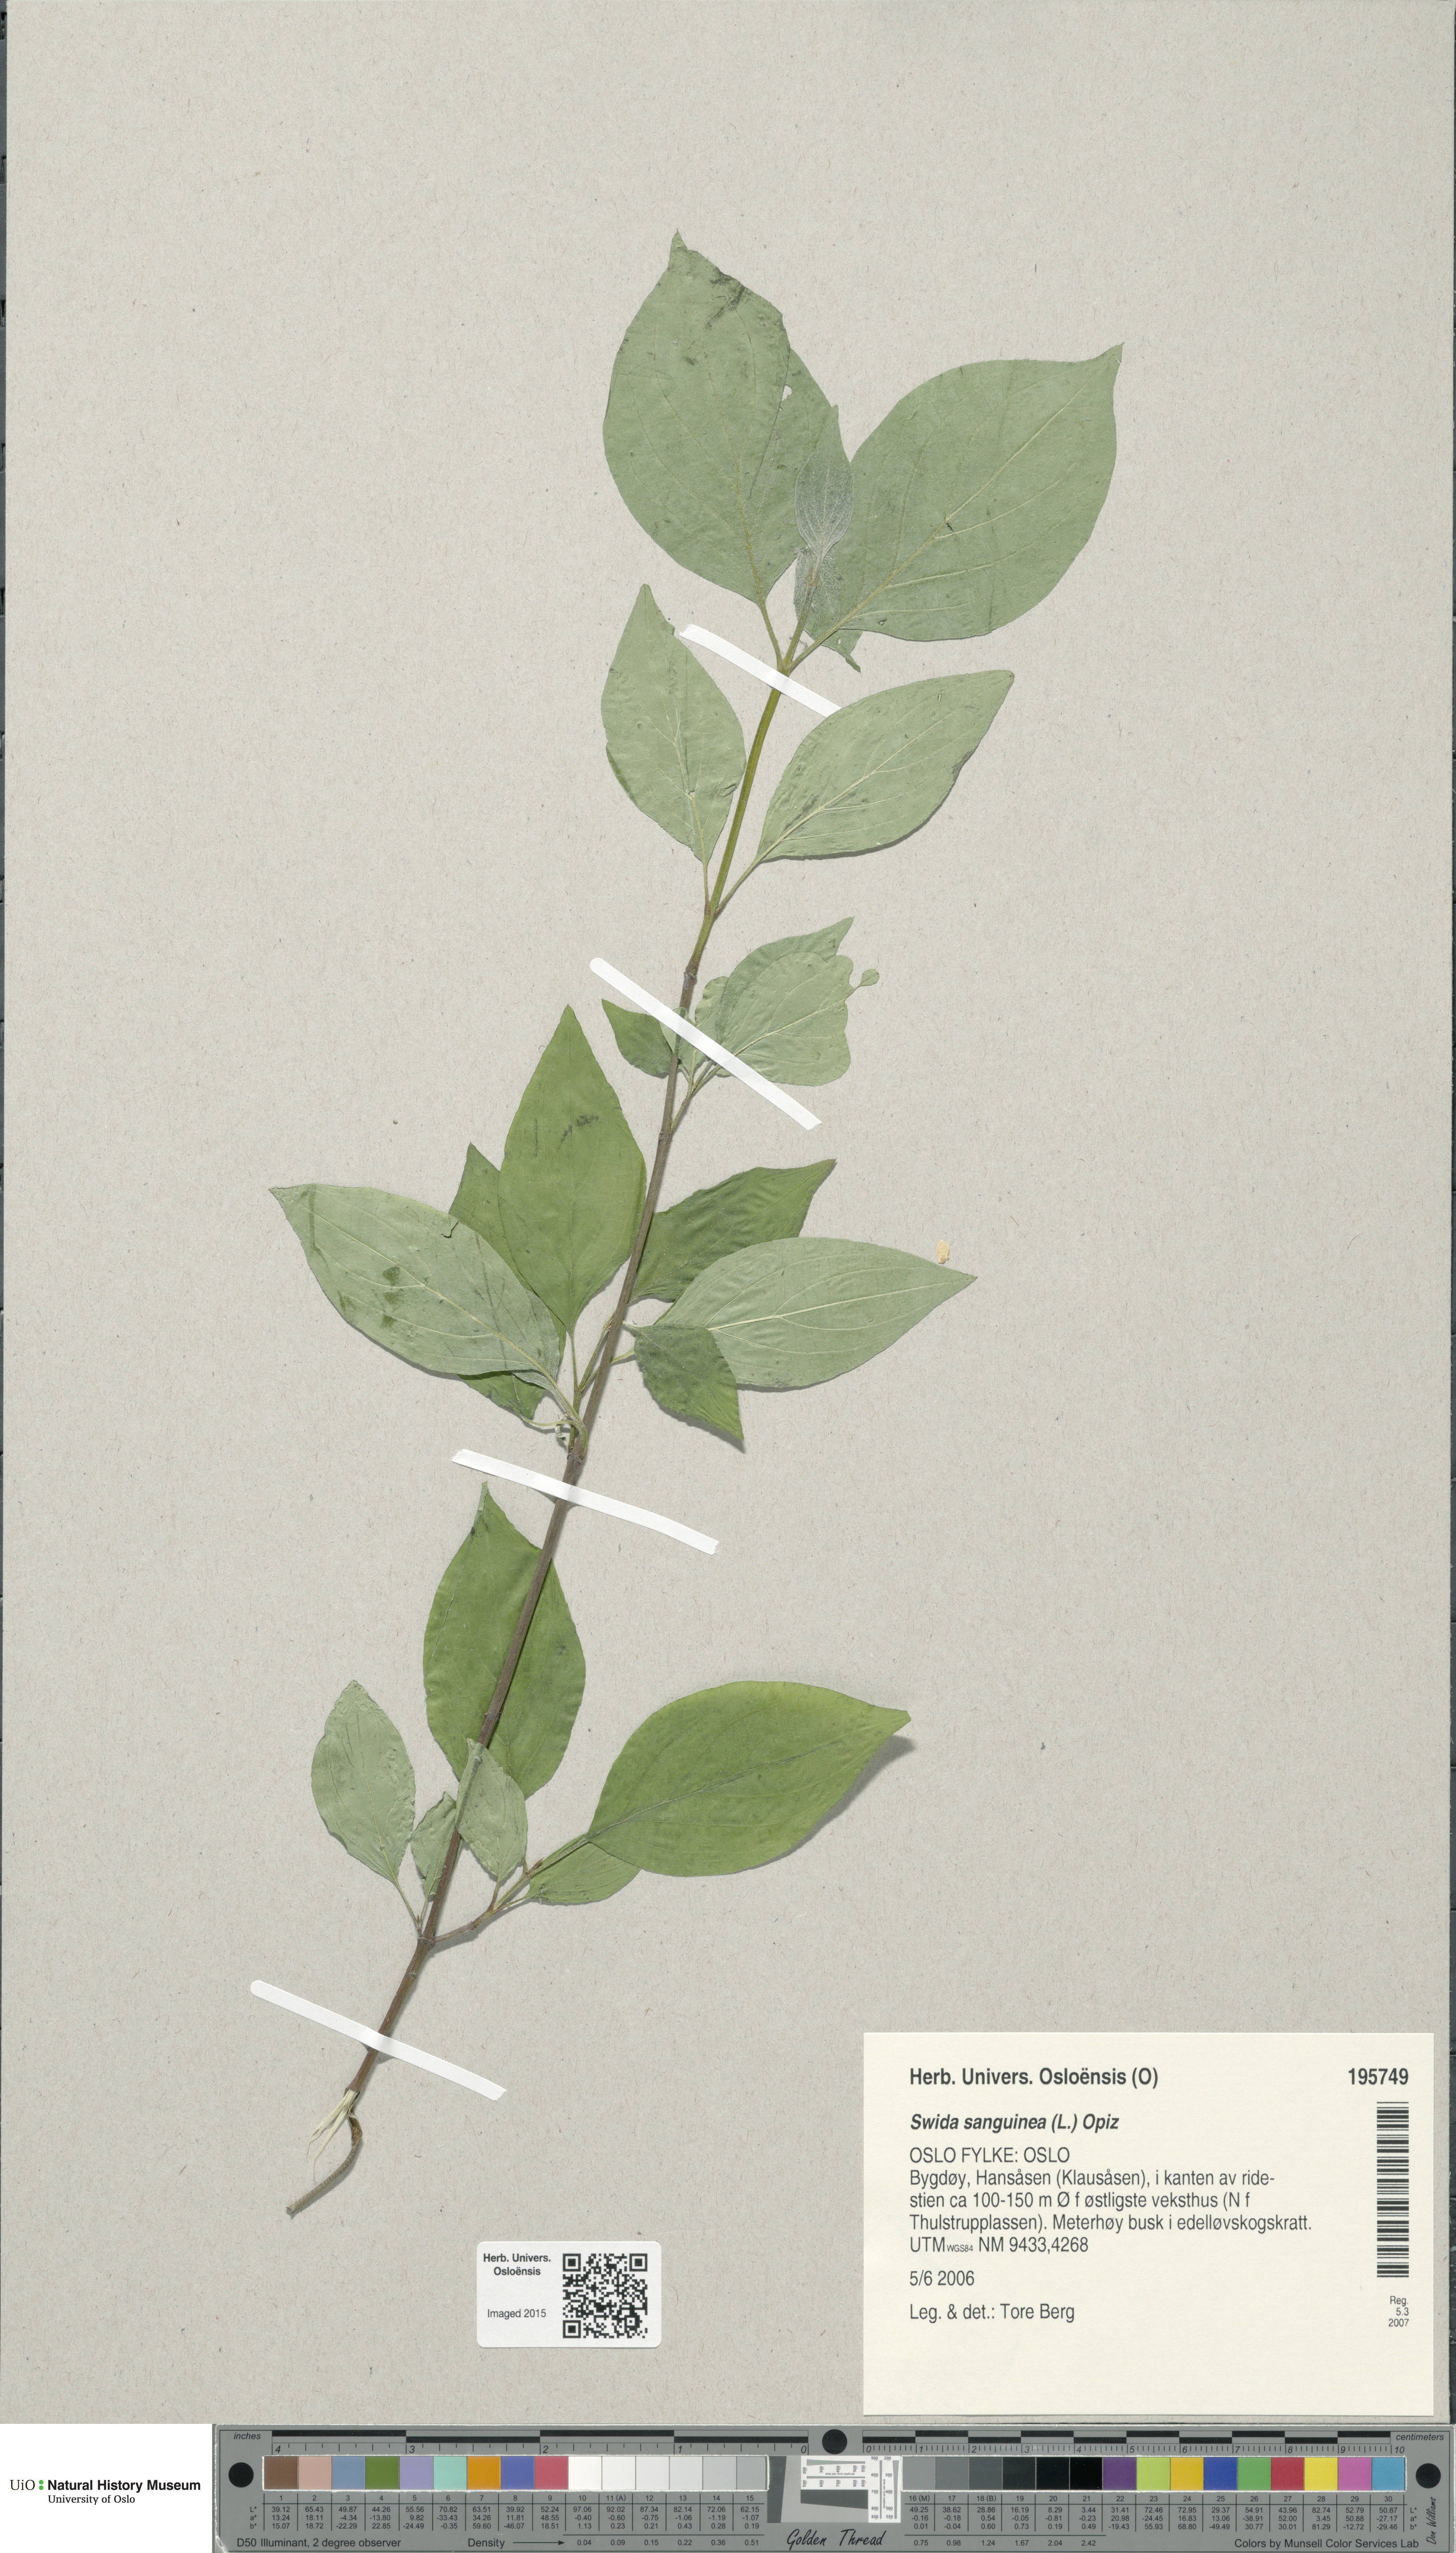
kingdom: Plantae
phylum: Tracheophyta
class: Magnoliopsida
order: Cornales
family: Cornaceae
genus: Cornus
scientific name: Cornus sanguinea
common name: Dogwood
